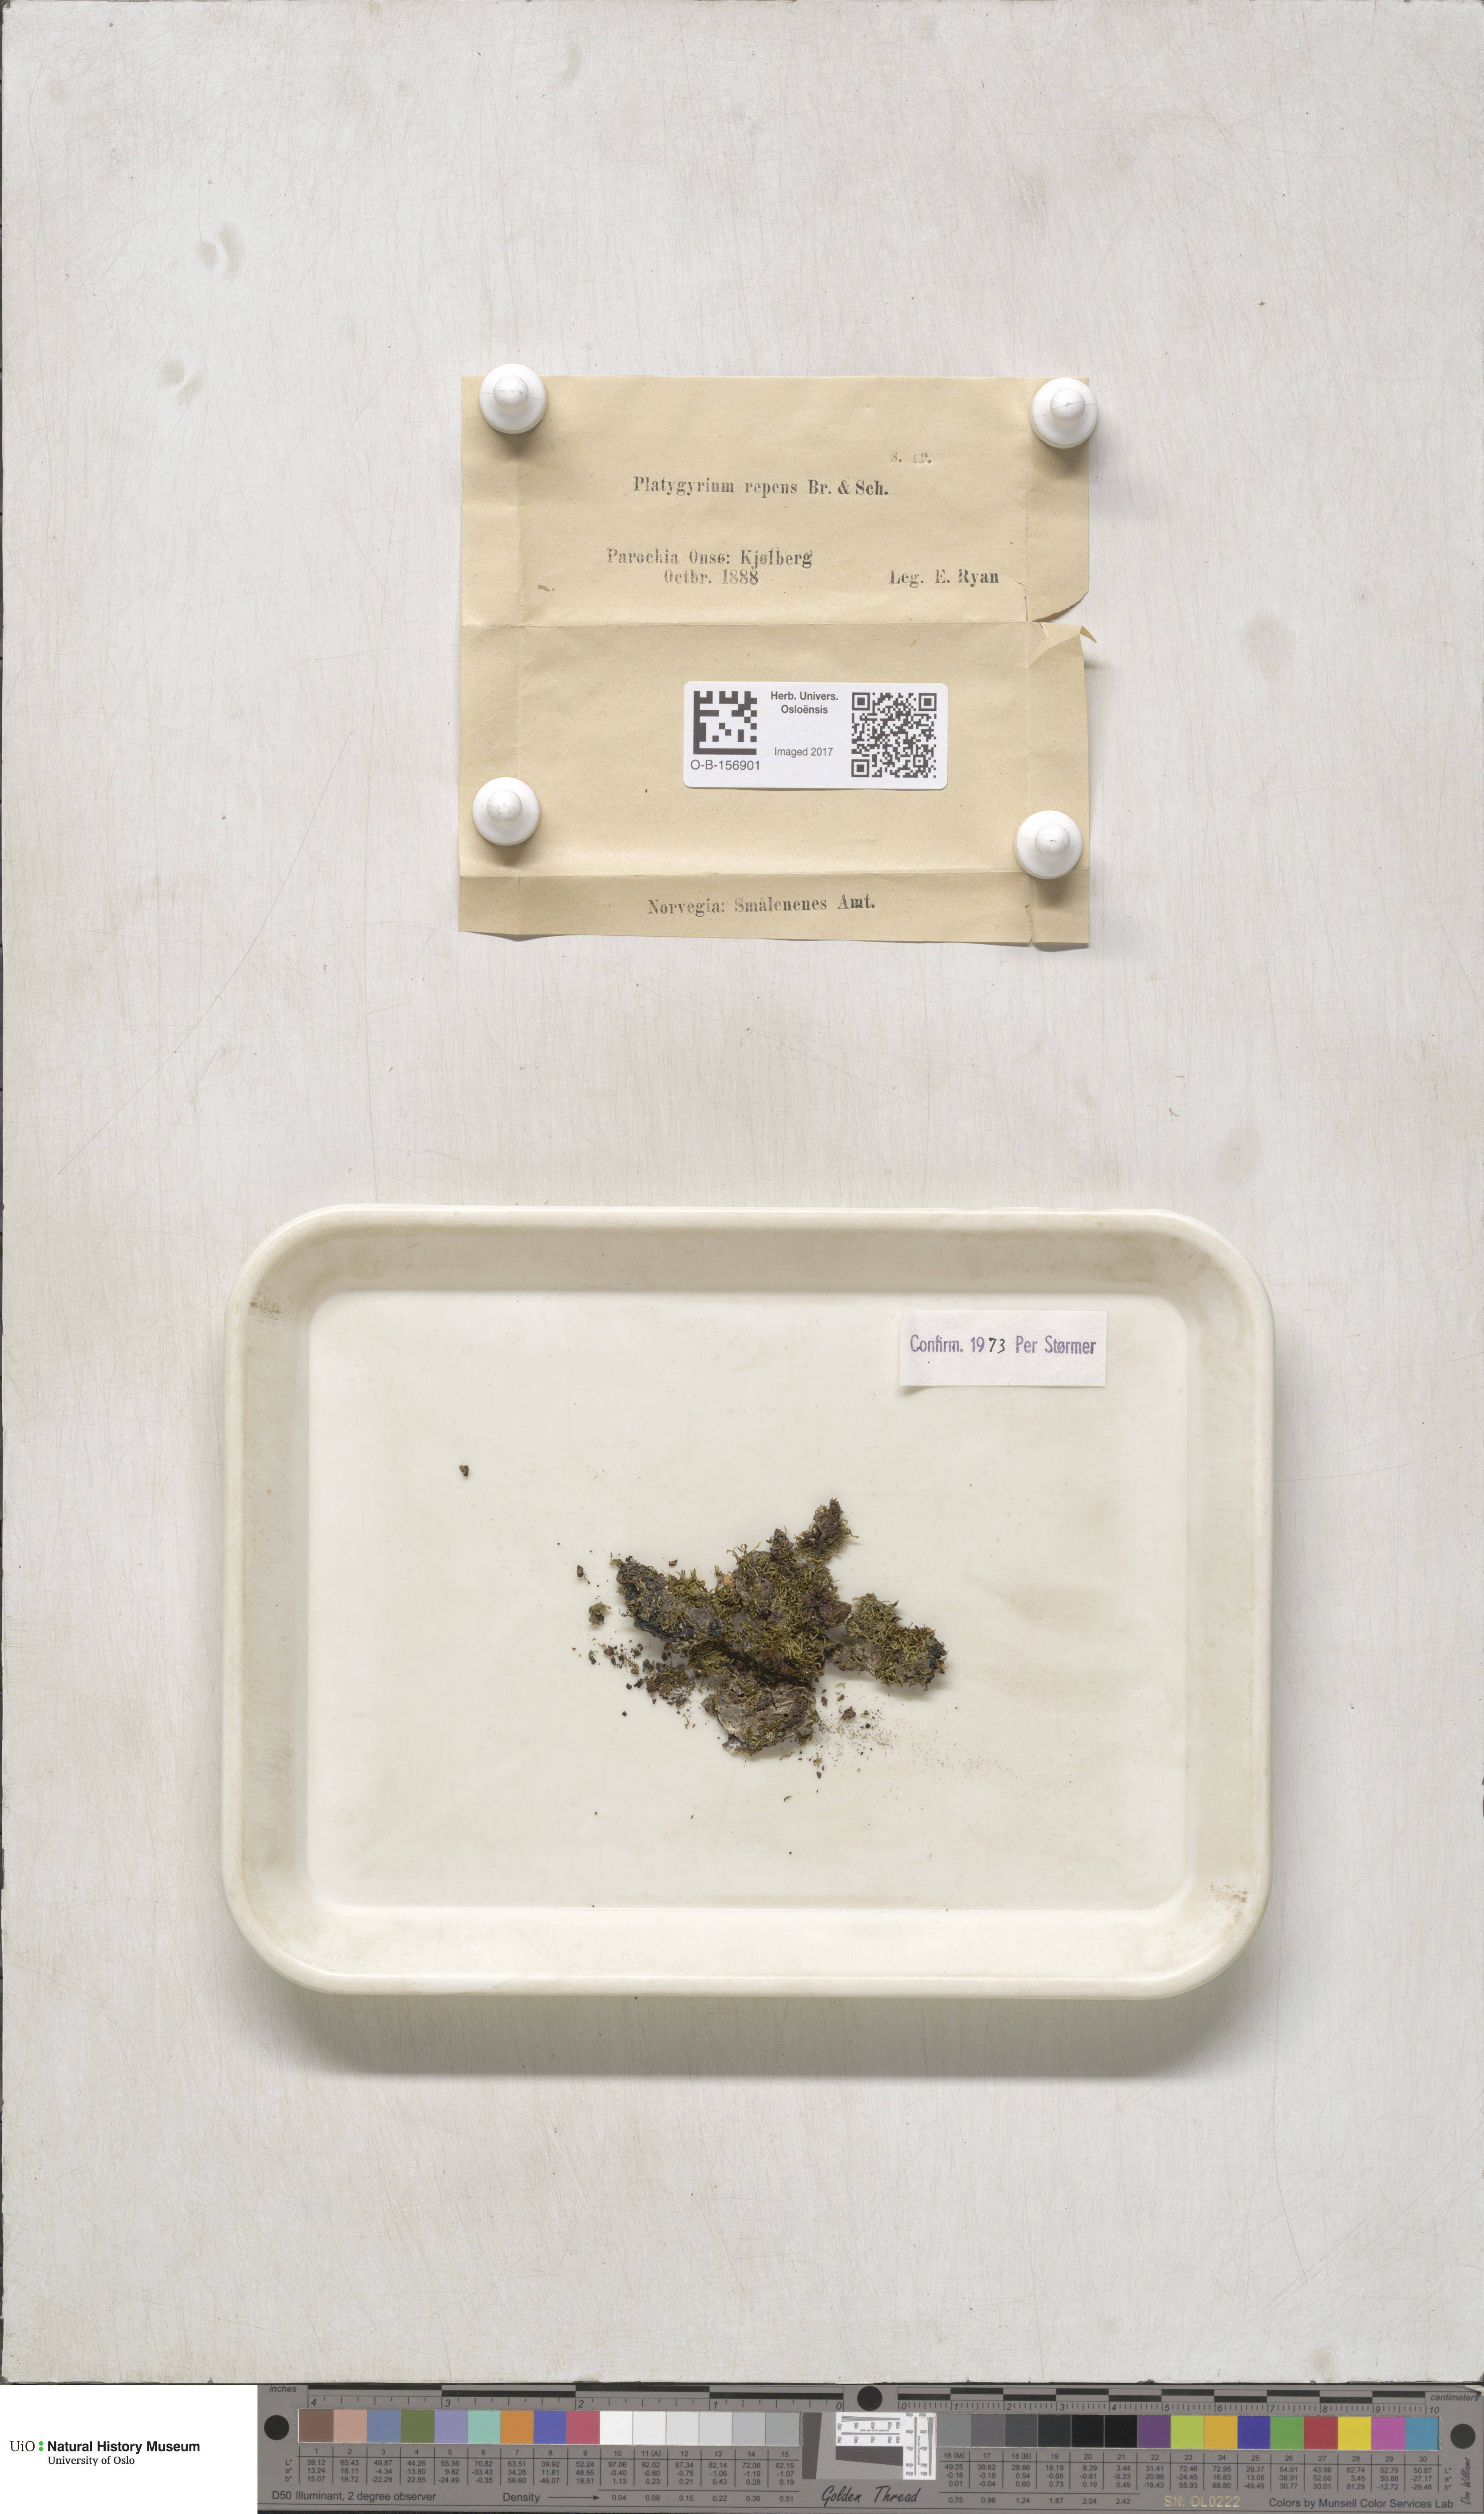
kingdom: Plantae
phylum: Bryophyta
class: Bryopsida
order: Hypnales
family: Pylaisiadelphaceae
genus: Platygyrium
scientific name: Platygyrium repens
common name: Flat-brocade moss
